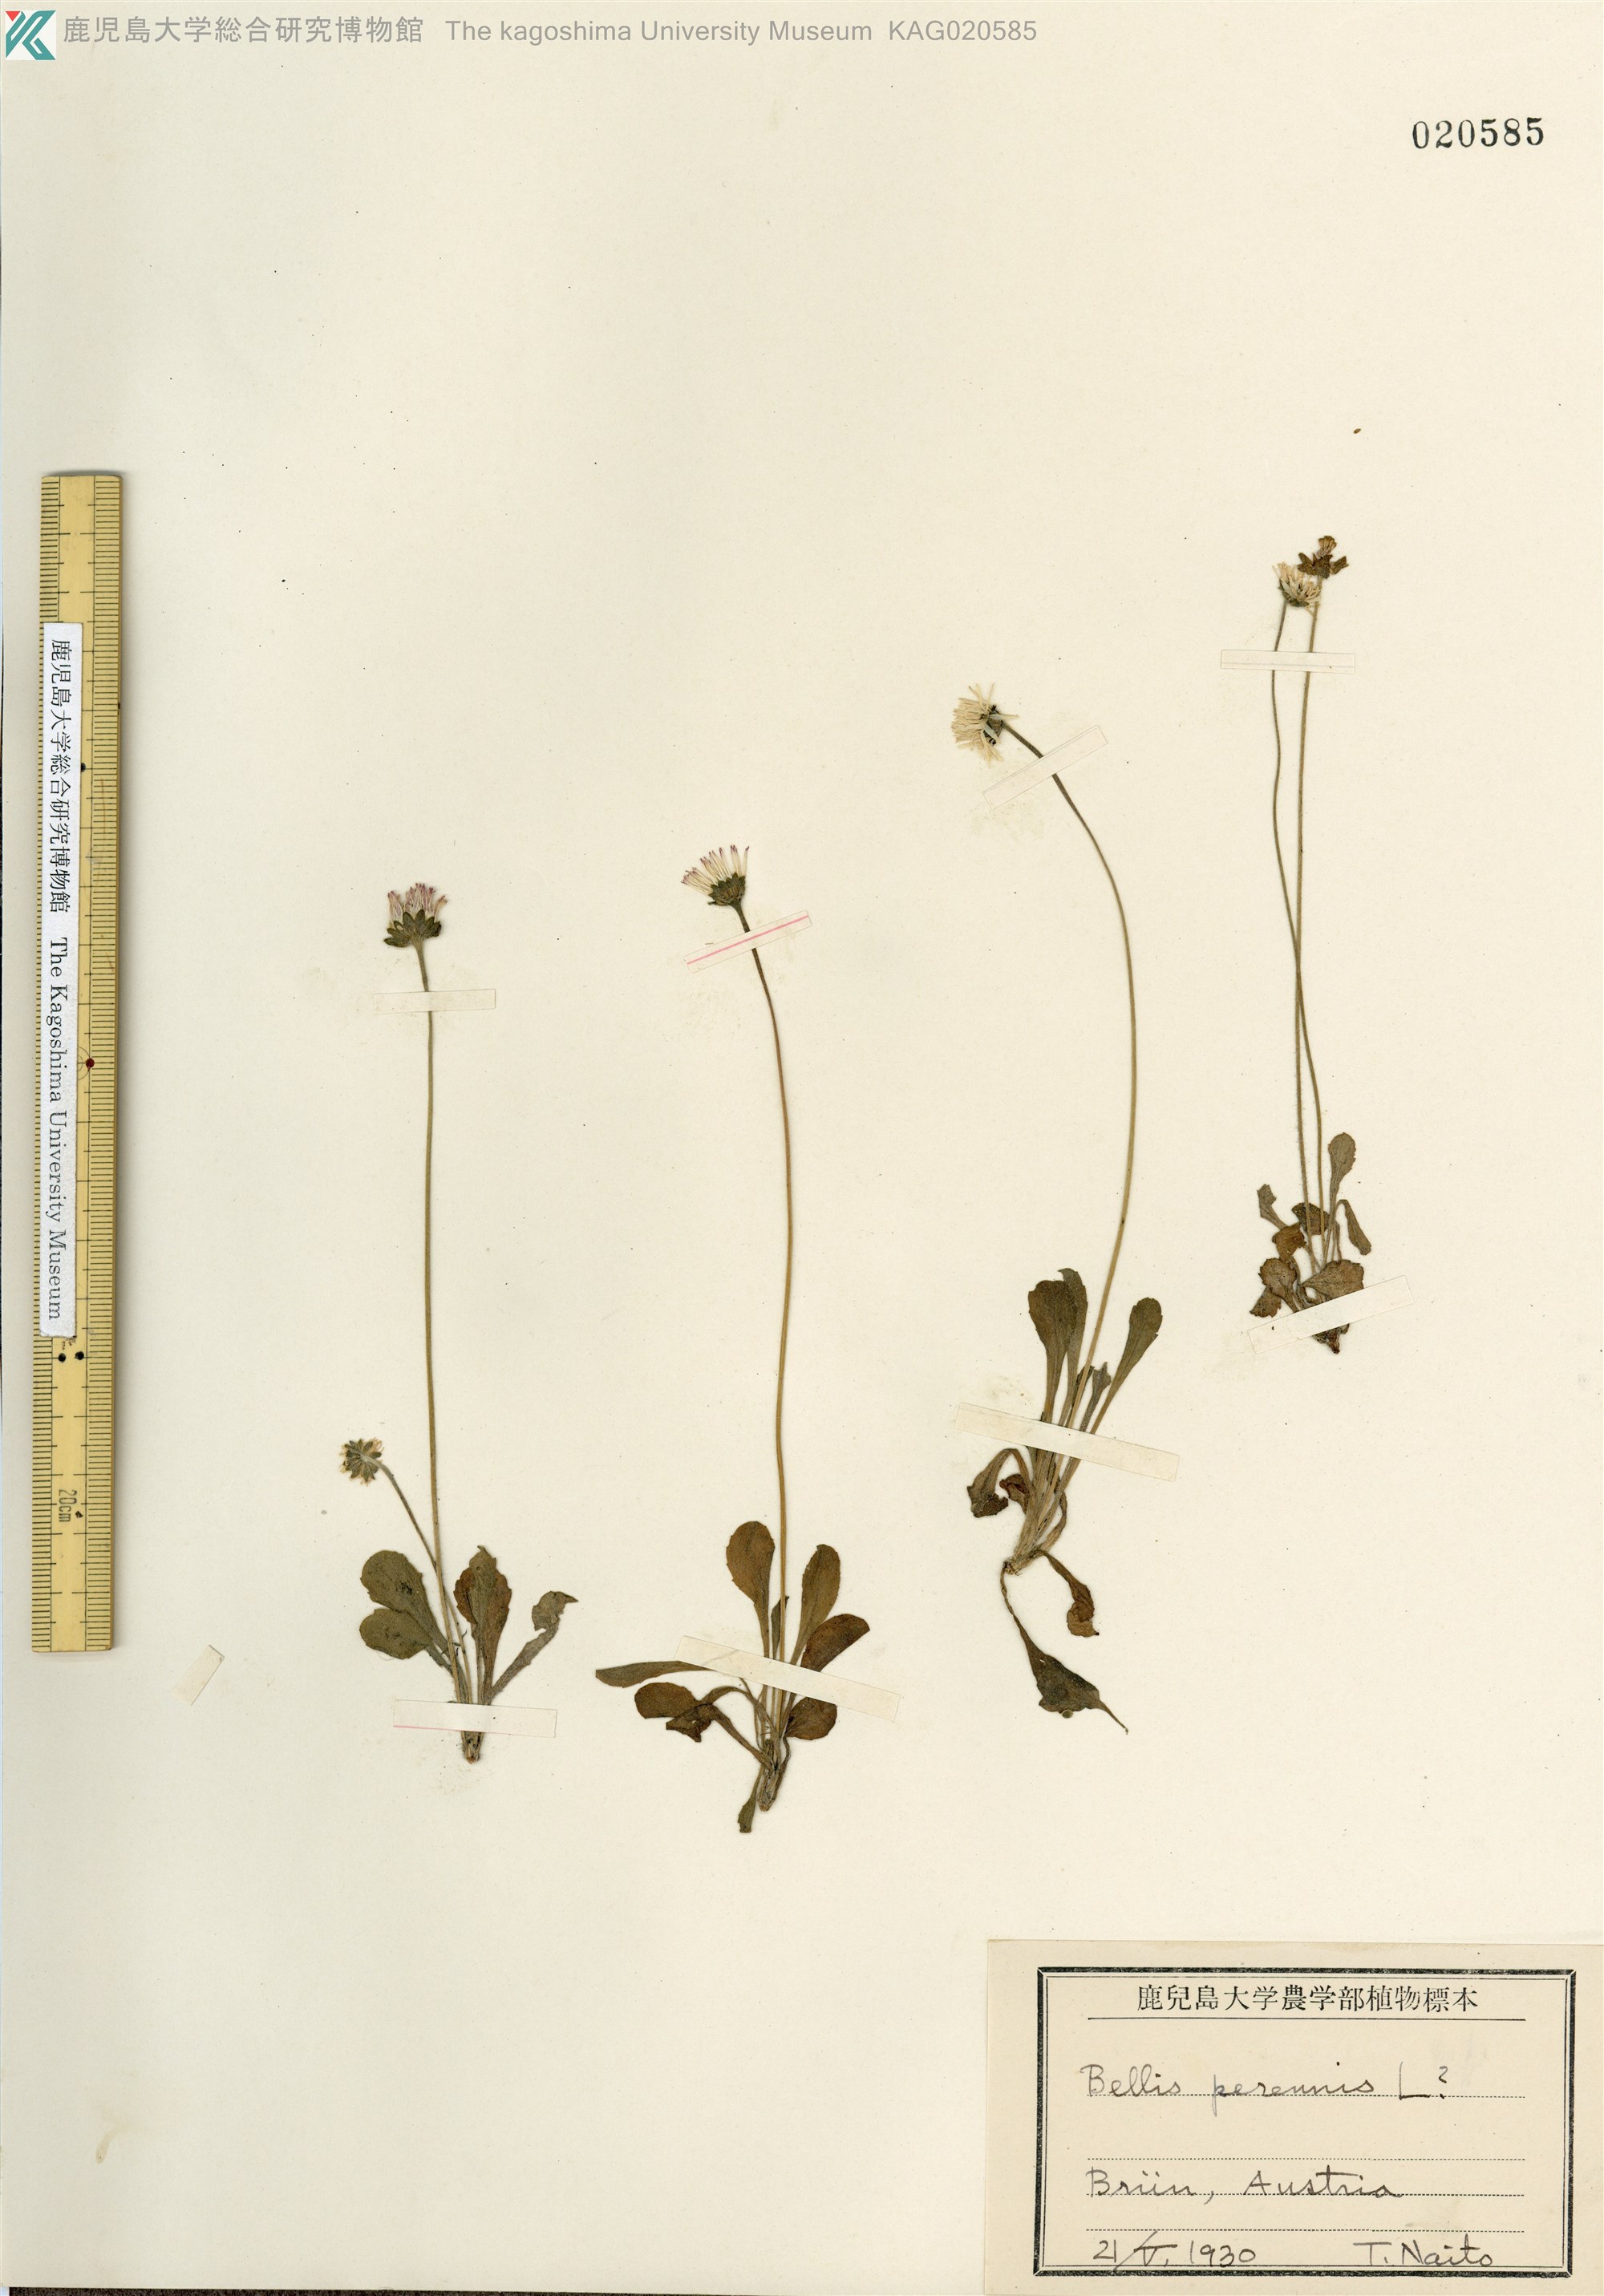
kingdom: Plantae
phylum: Tracheophyta
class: Magnoliopsida
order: Asterales
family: Asteraceae
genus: Bellis
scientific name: Bellis perennis
